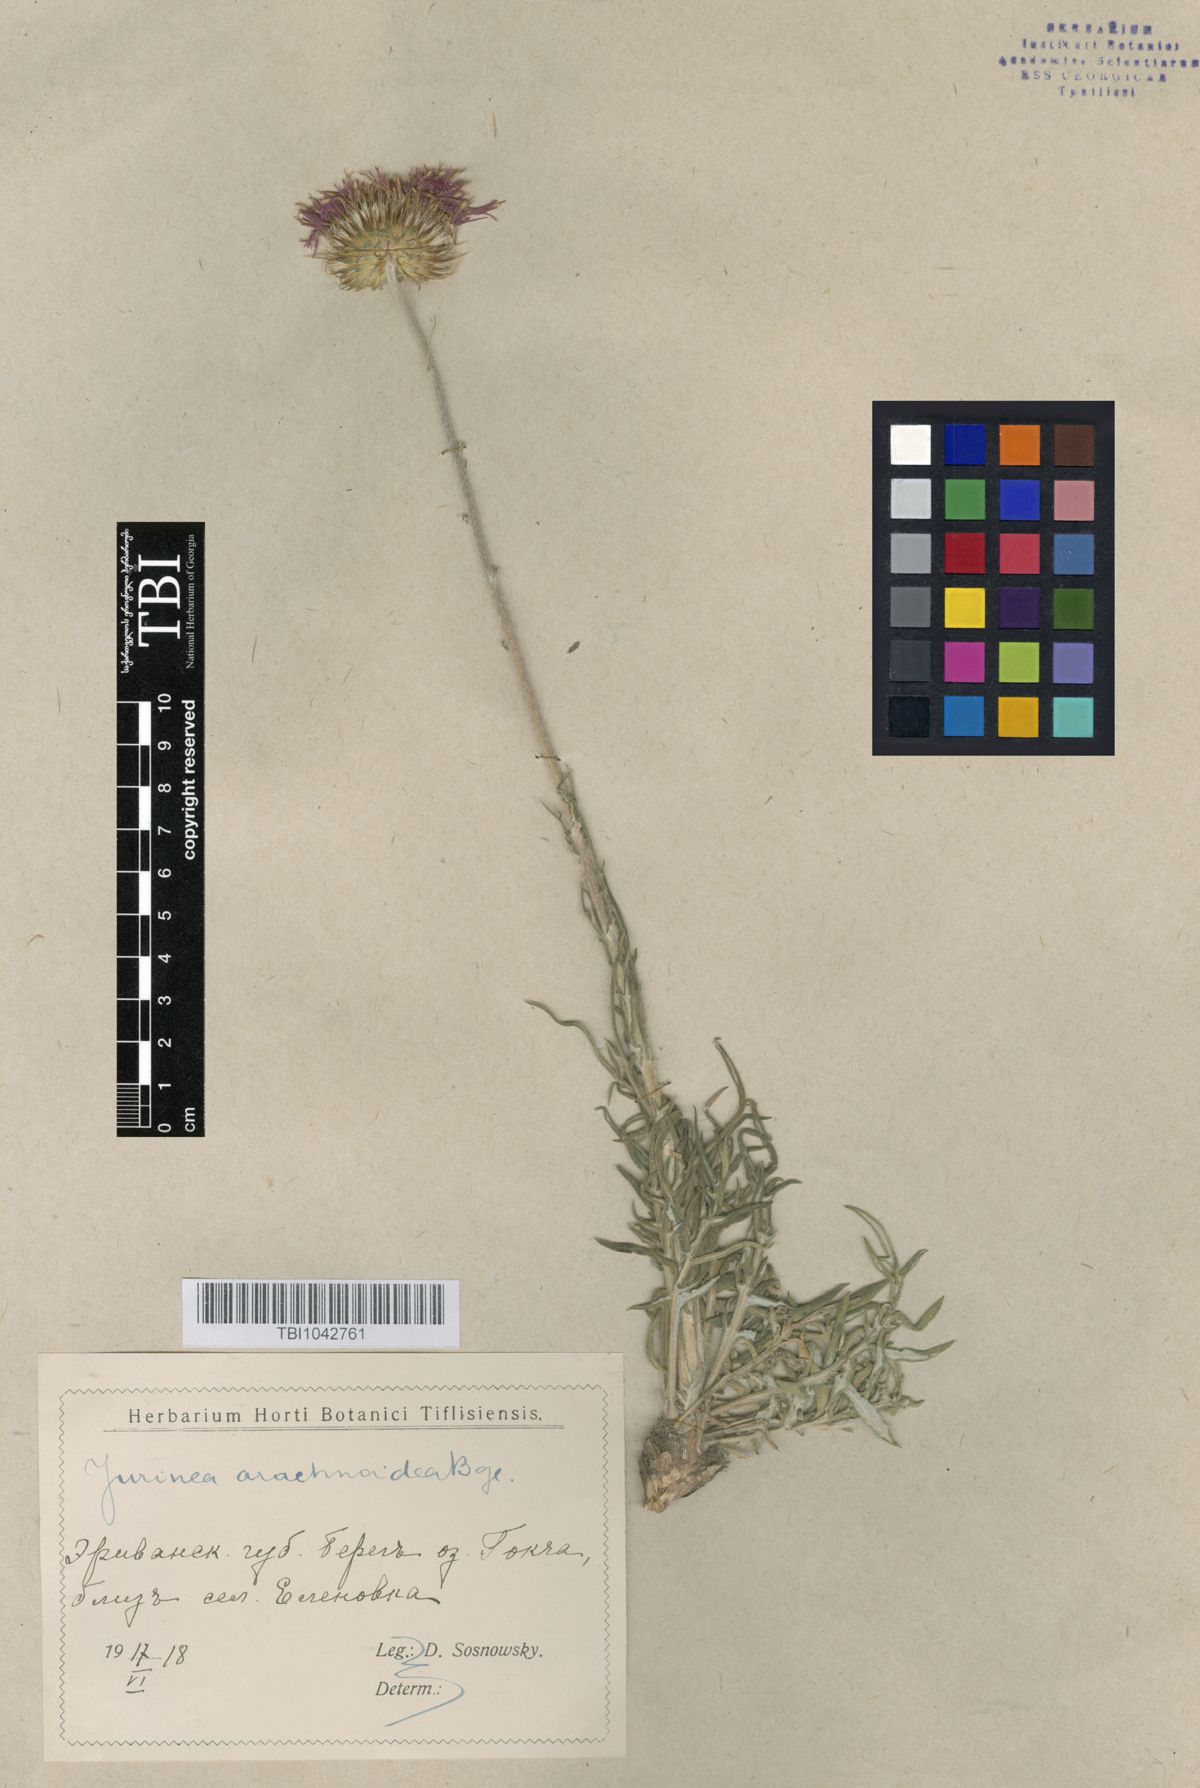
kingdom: Plantae
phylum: Tracheophyta
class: Magnoliopsida
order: Asterales
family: Asteraceae
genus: Jurinea
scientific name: Jurinea blanda
